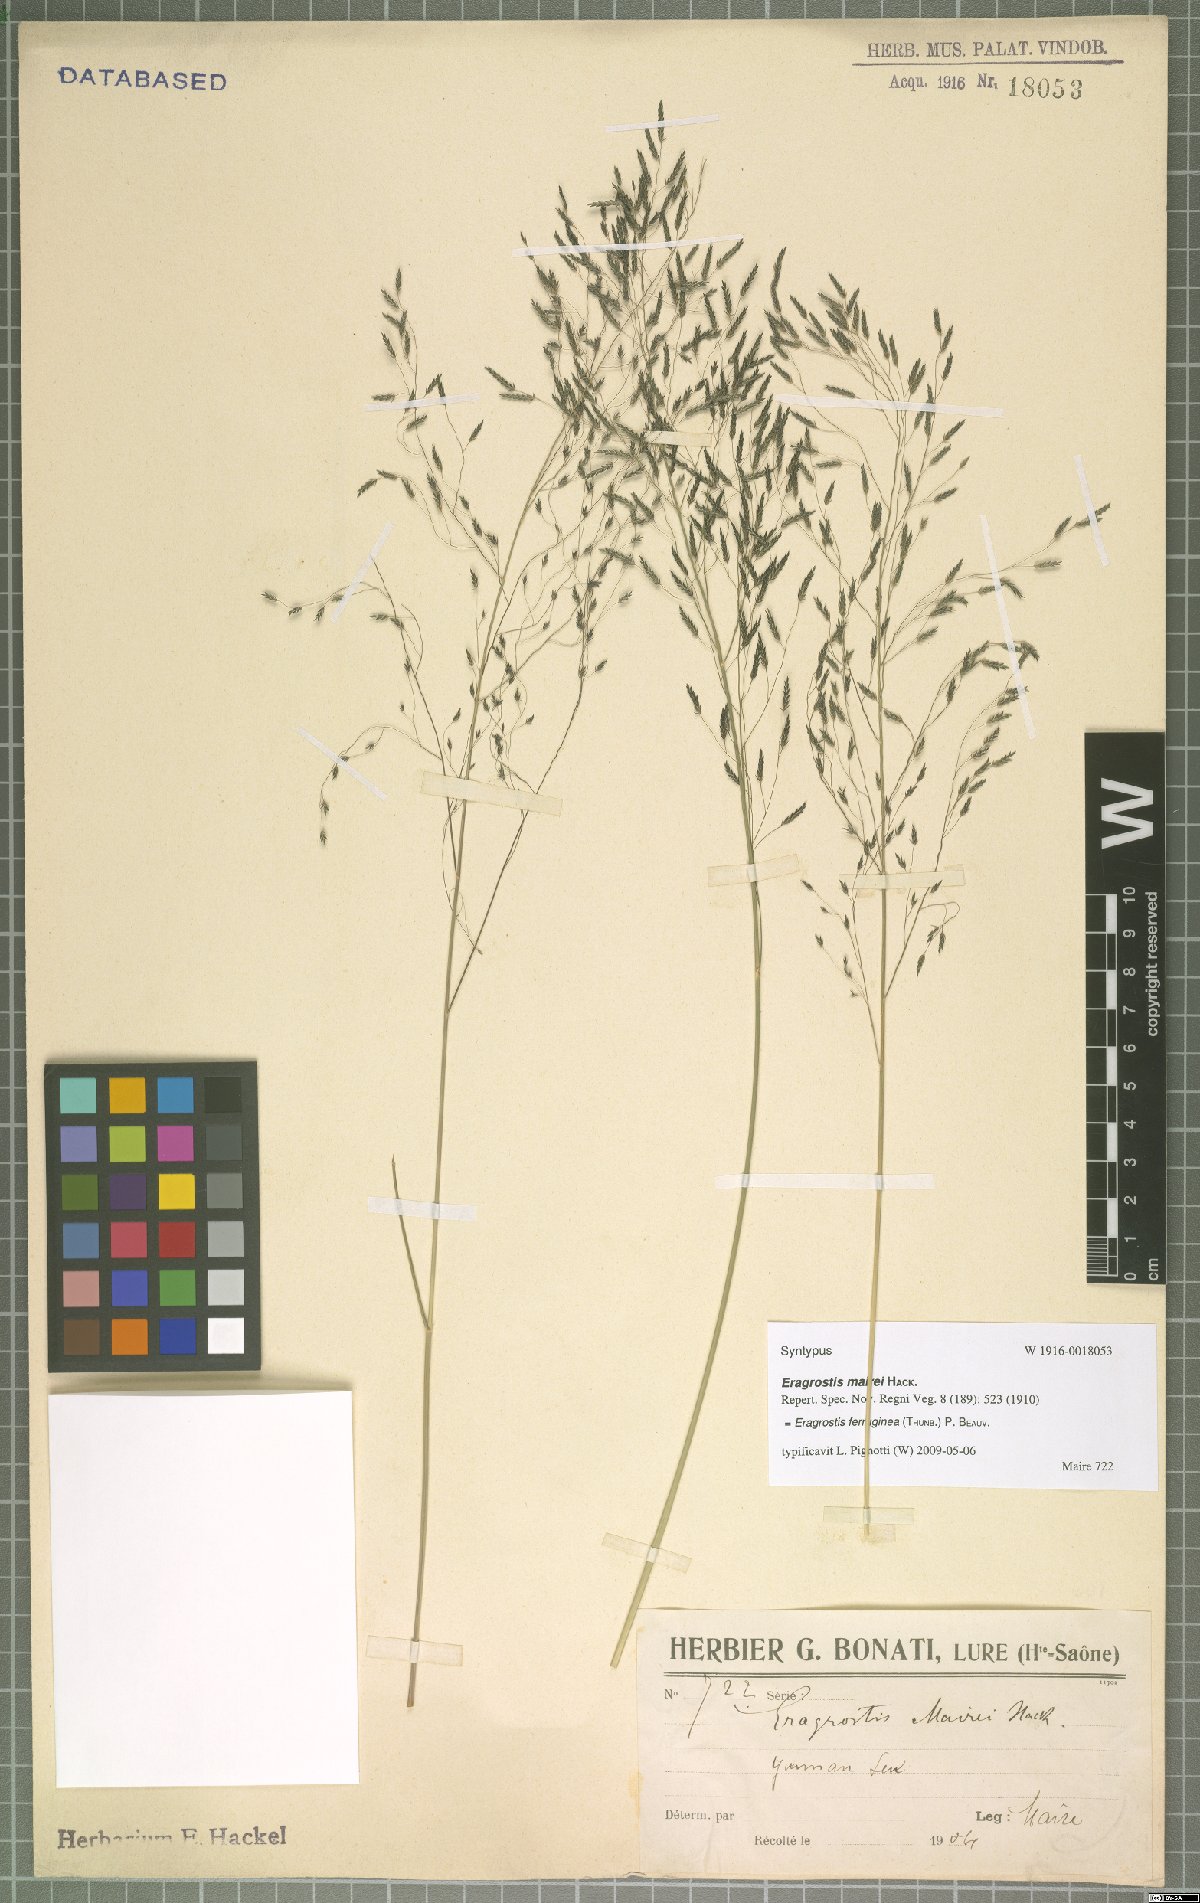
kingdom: Plantae
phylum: Tracheophyta
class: Liliopsida
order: Poales
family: Poaceae
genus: Eragrostis
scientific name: Eragrostis ferruginea
